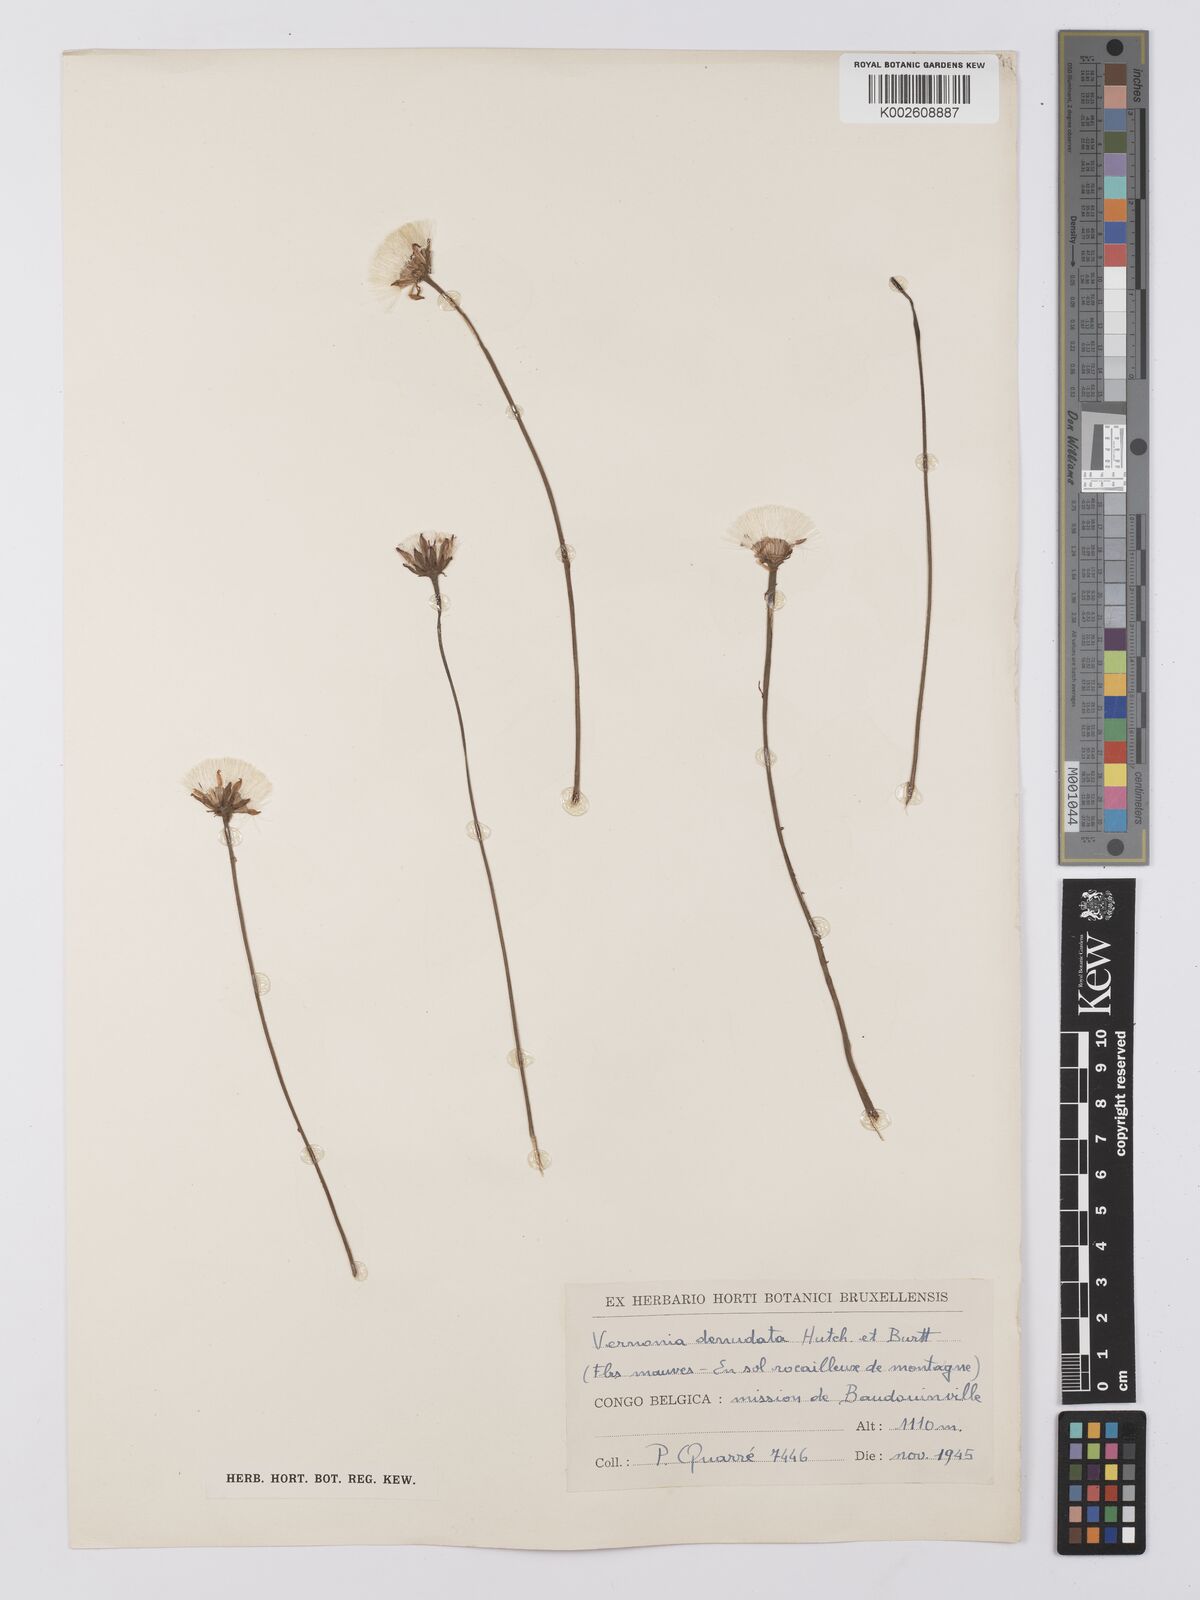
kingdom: Plantae
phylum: Tracheophyta
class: Magnoliopsida
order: Asterales
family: Asteraceae
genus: Vernonella
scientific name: Vernonella denudata
